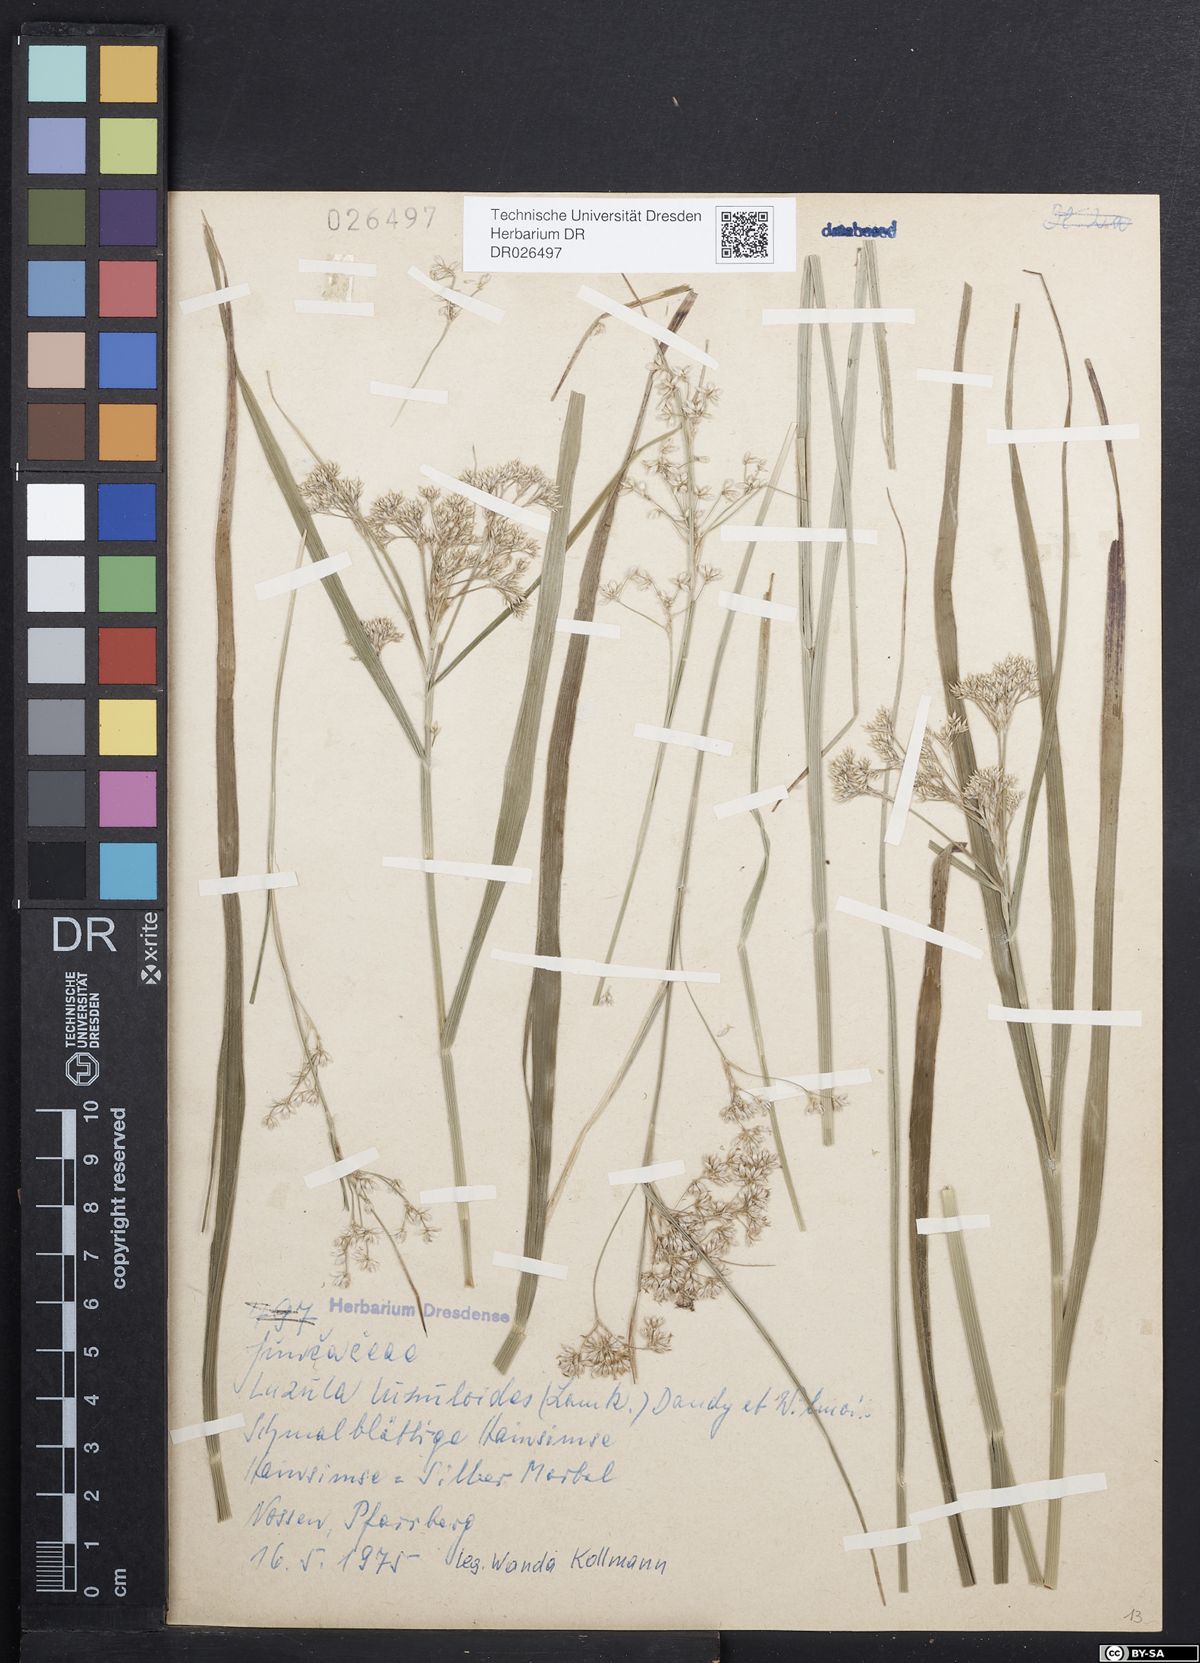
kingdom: Plantae
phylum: Tracheophyta
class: Liliopsida
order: Poales
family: Juncaceae
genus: Luzula
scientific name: Luzula luzuloides
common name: White wood-rush
